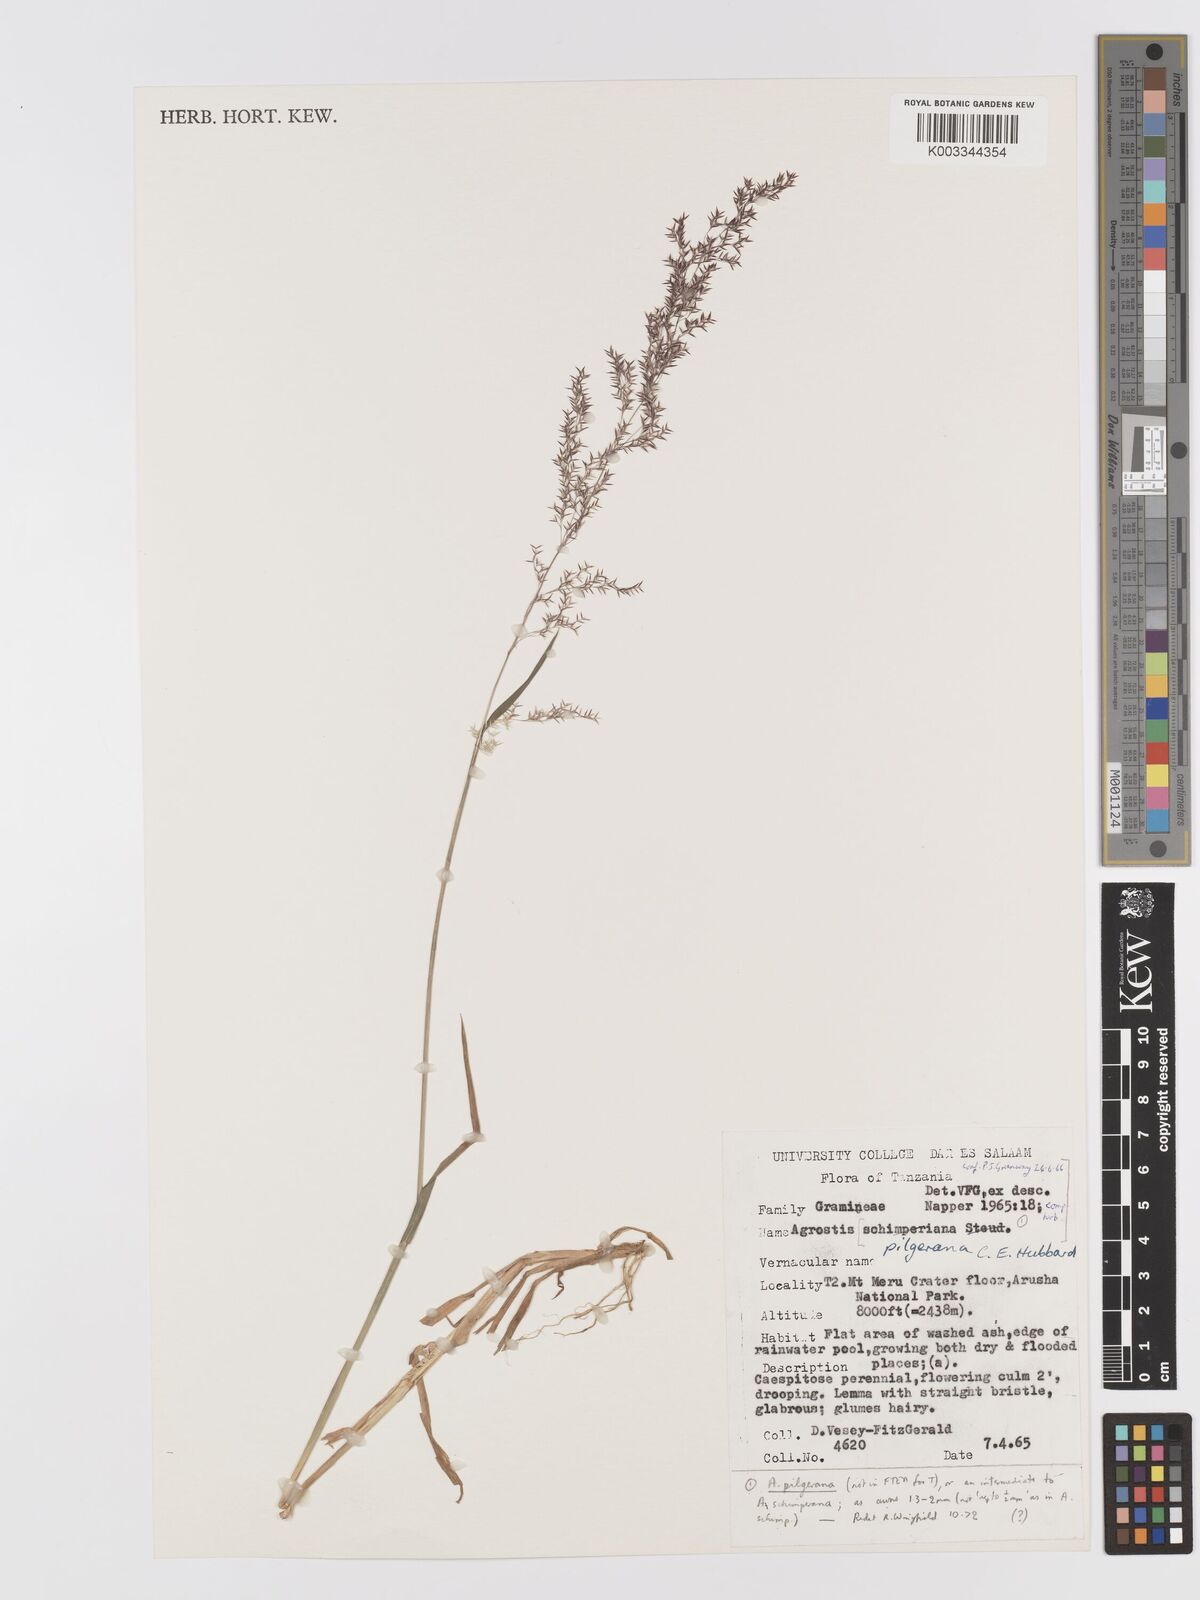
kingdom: Plantae
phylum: Tracheophyta
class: Liliopsida
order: Poales
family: Poaceae
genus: Agrostis
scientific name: Agrostis pilgeriana
